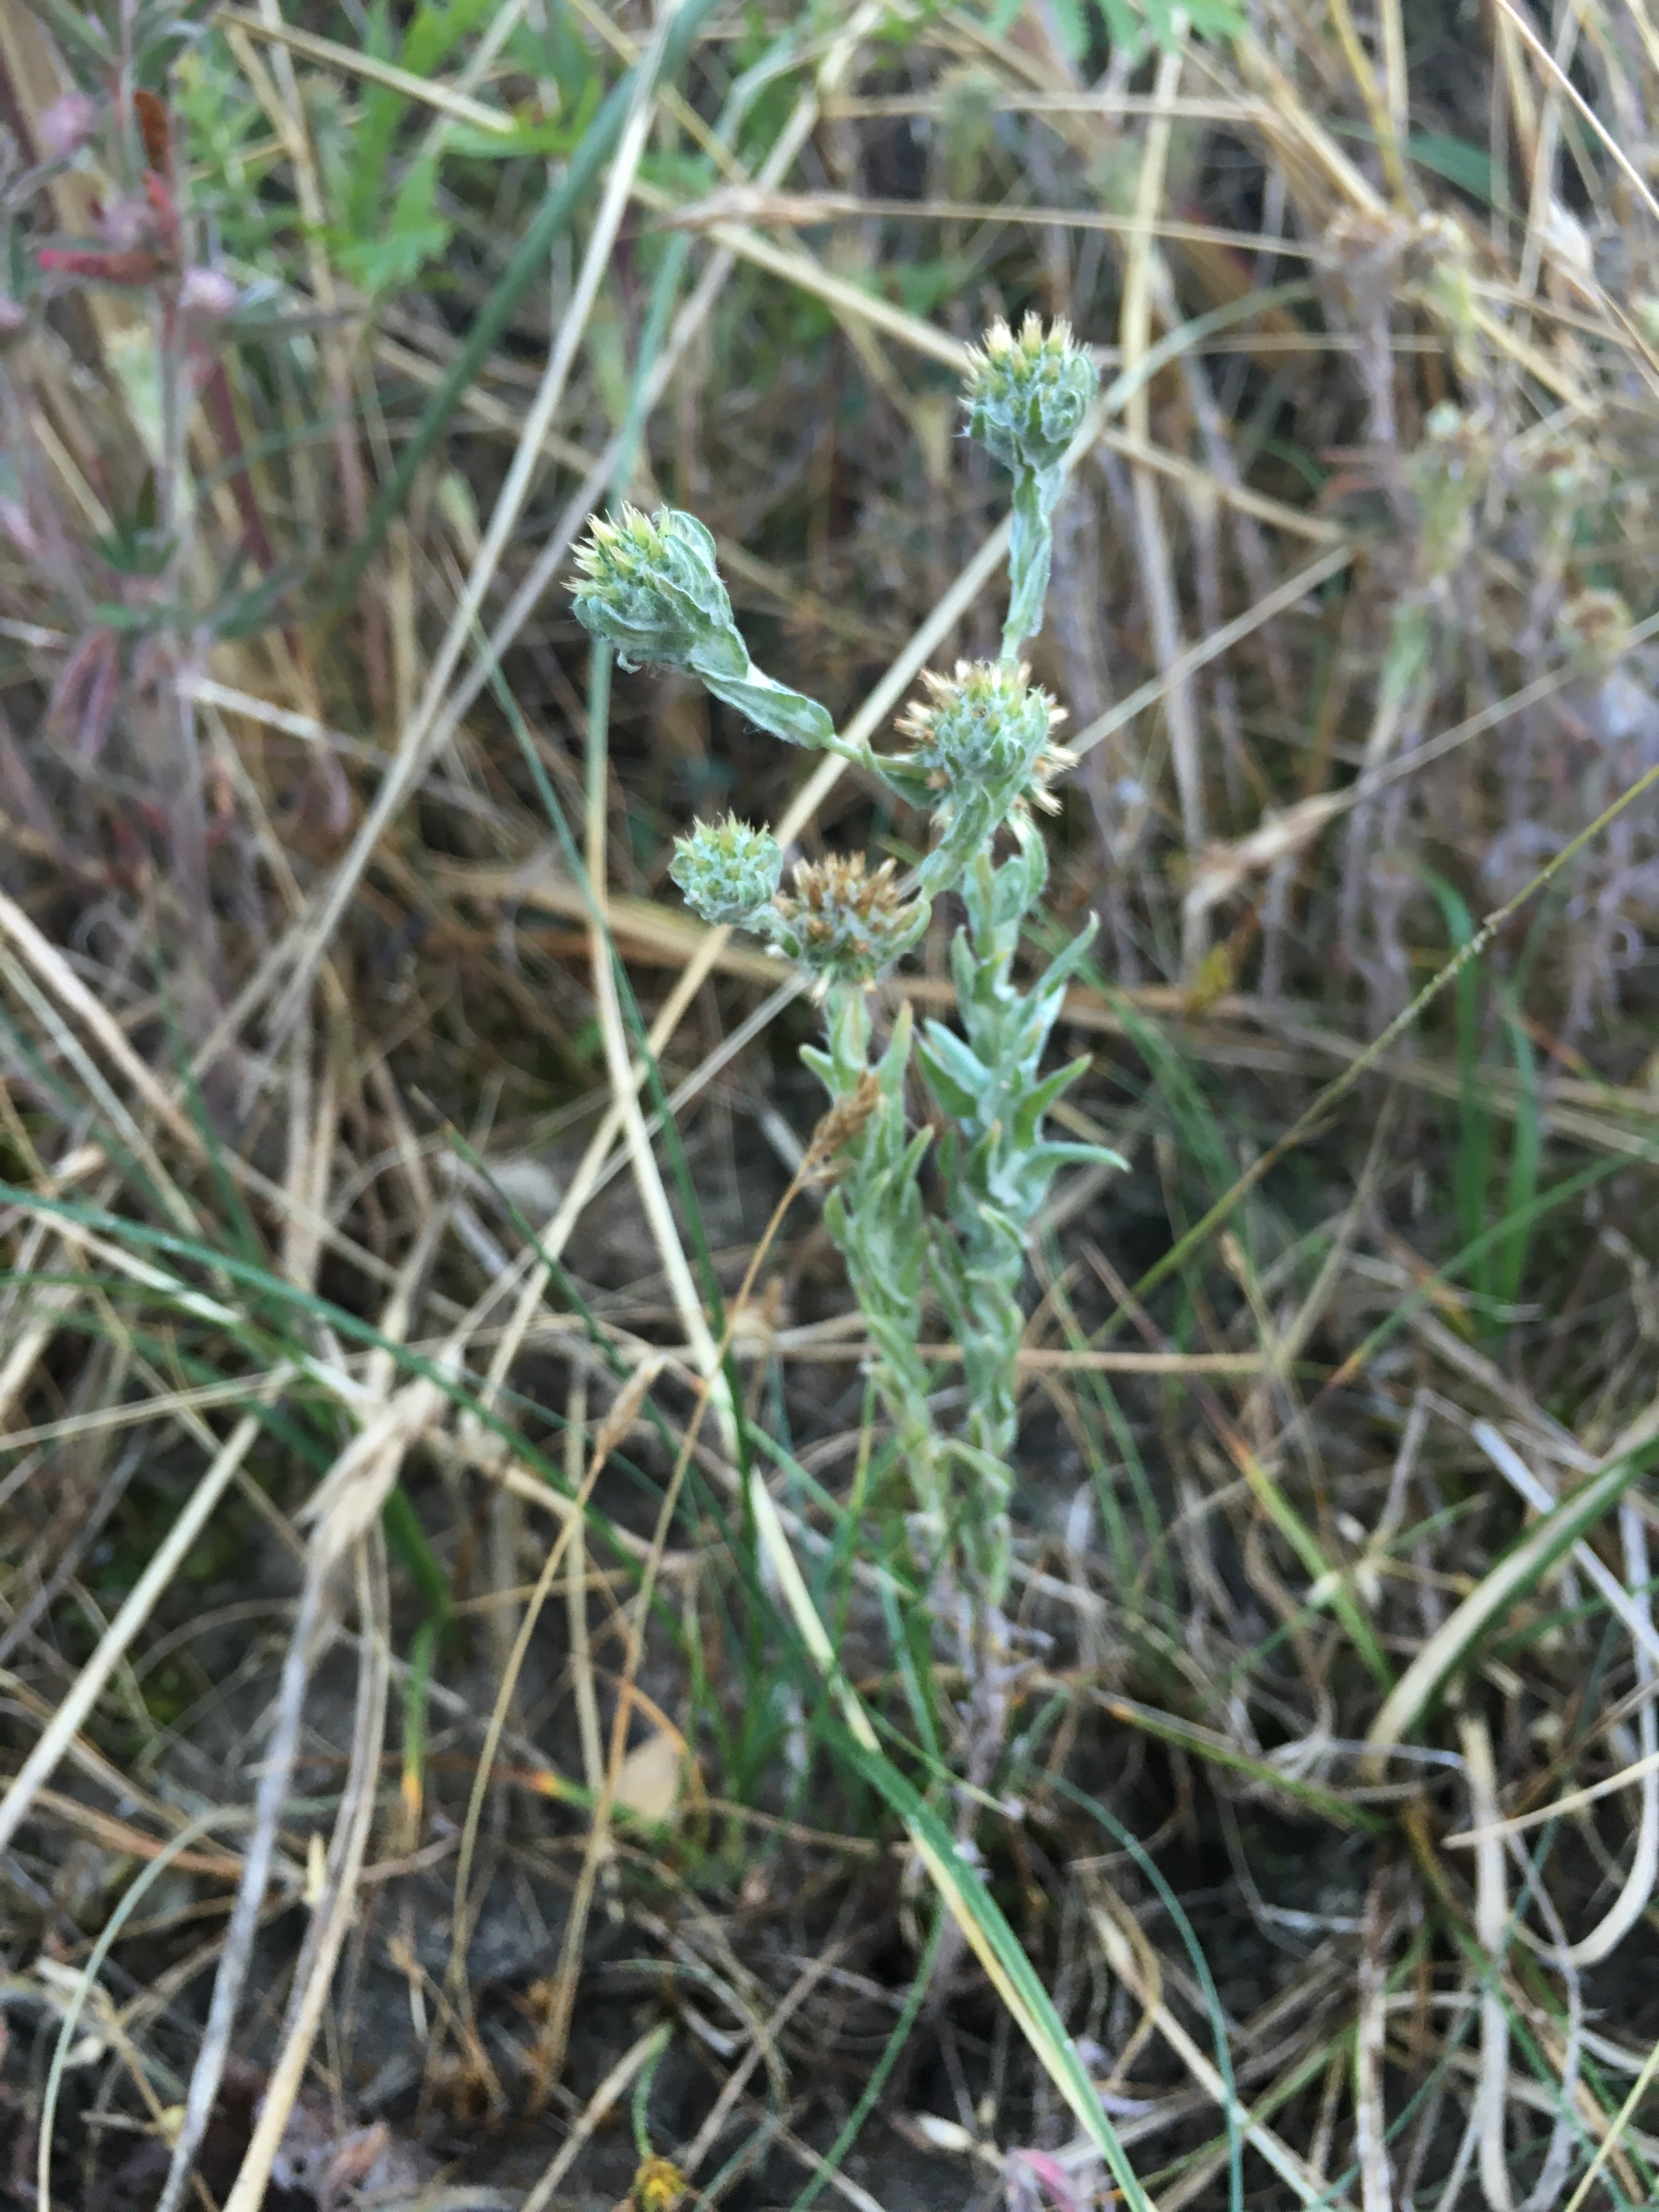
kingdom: Plantae
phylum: Tracheophyta
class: Magnoliopsida
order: Asterales
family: Asteraceae
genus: Filago
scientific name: Filago germanica
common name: Kugle-museurt
